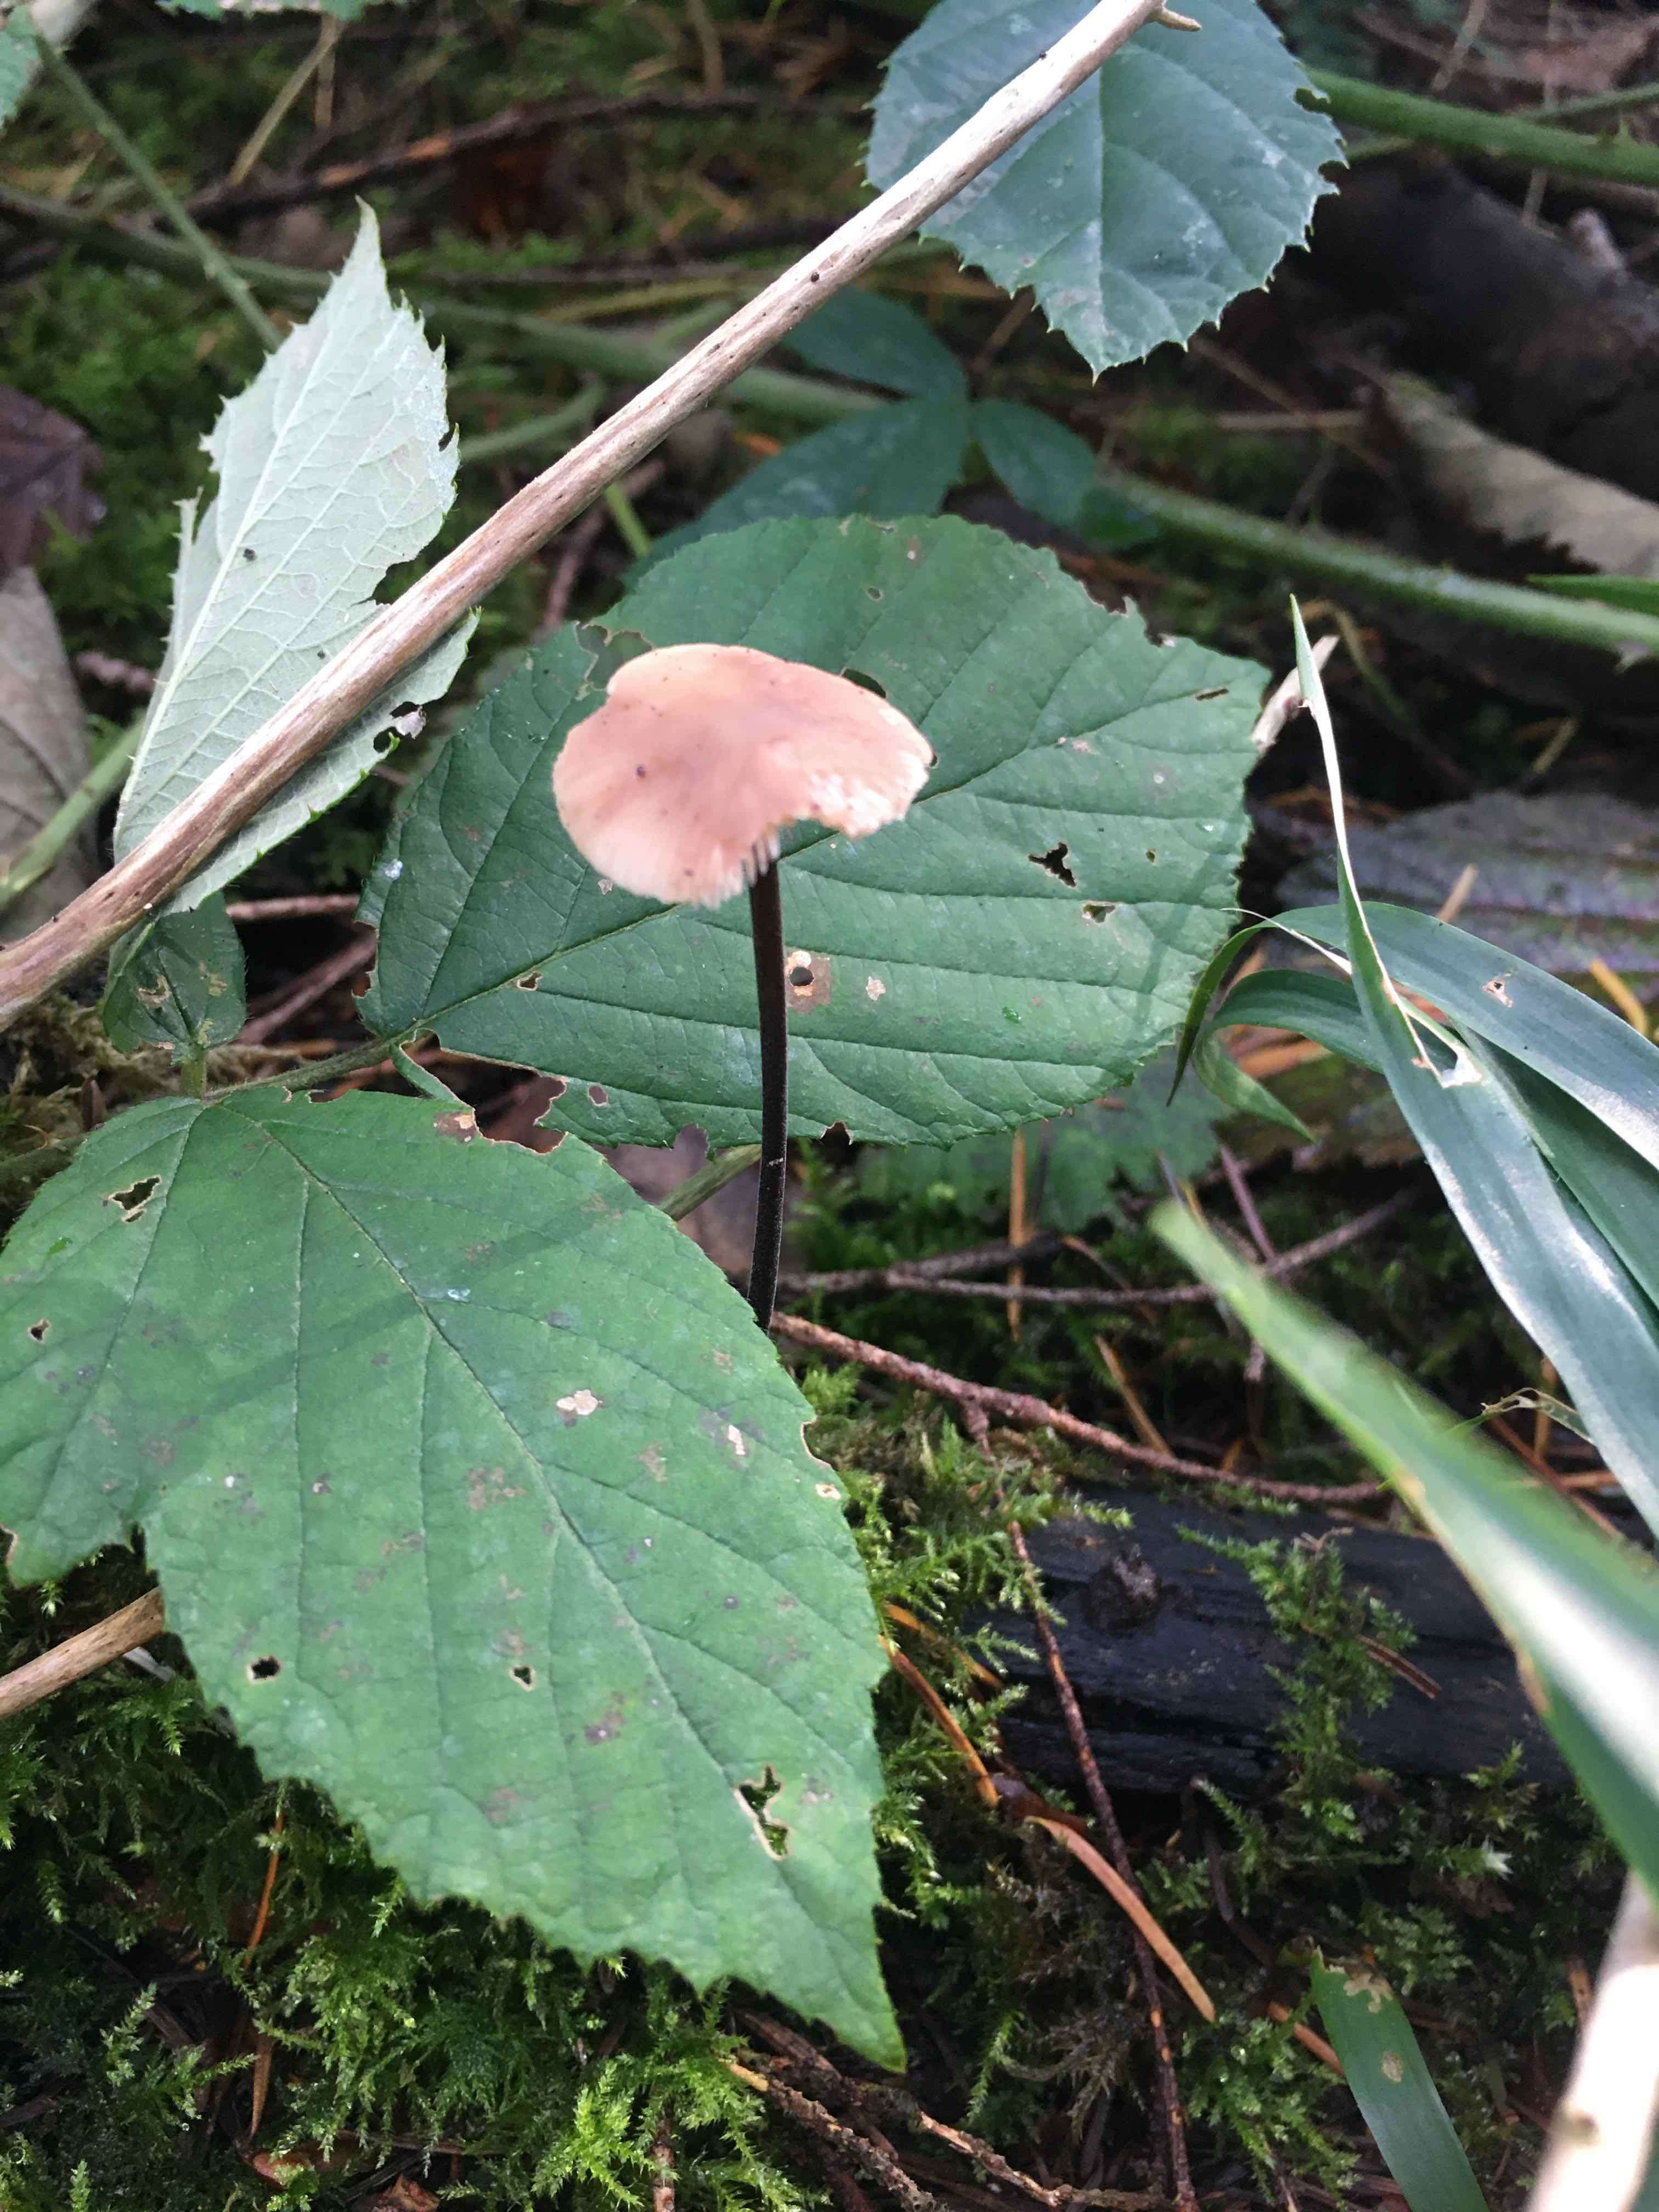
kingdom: Fungi
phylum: Basidiomycota
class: Agaricomycetes
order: Agaricales
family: Omphalotaceae
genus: Mycetinis
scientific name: Mycetinis alliaceus
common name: stor løghat
